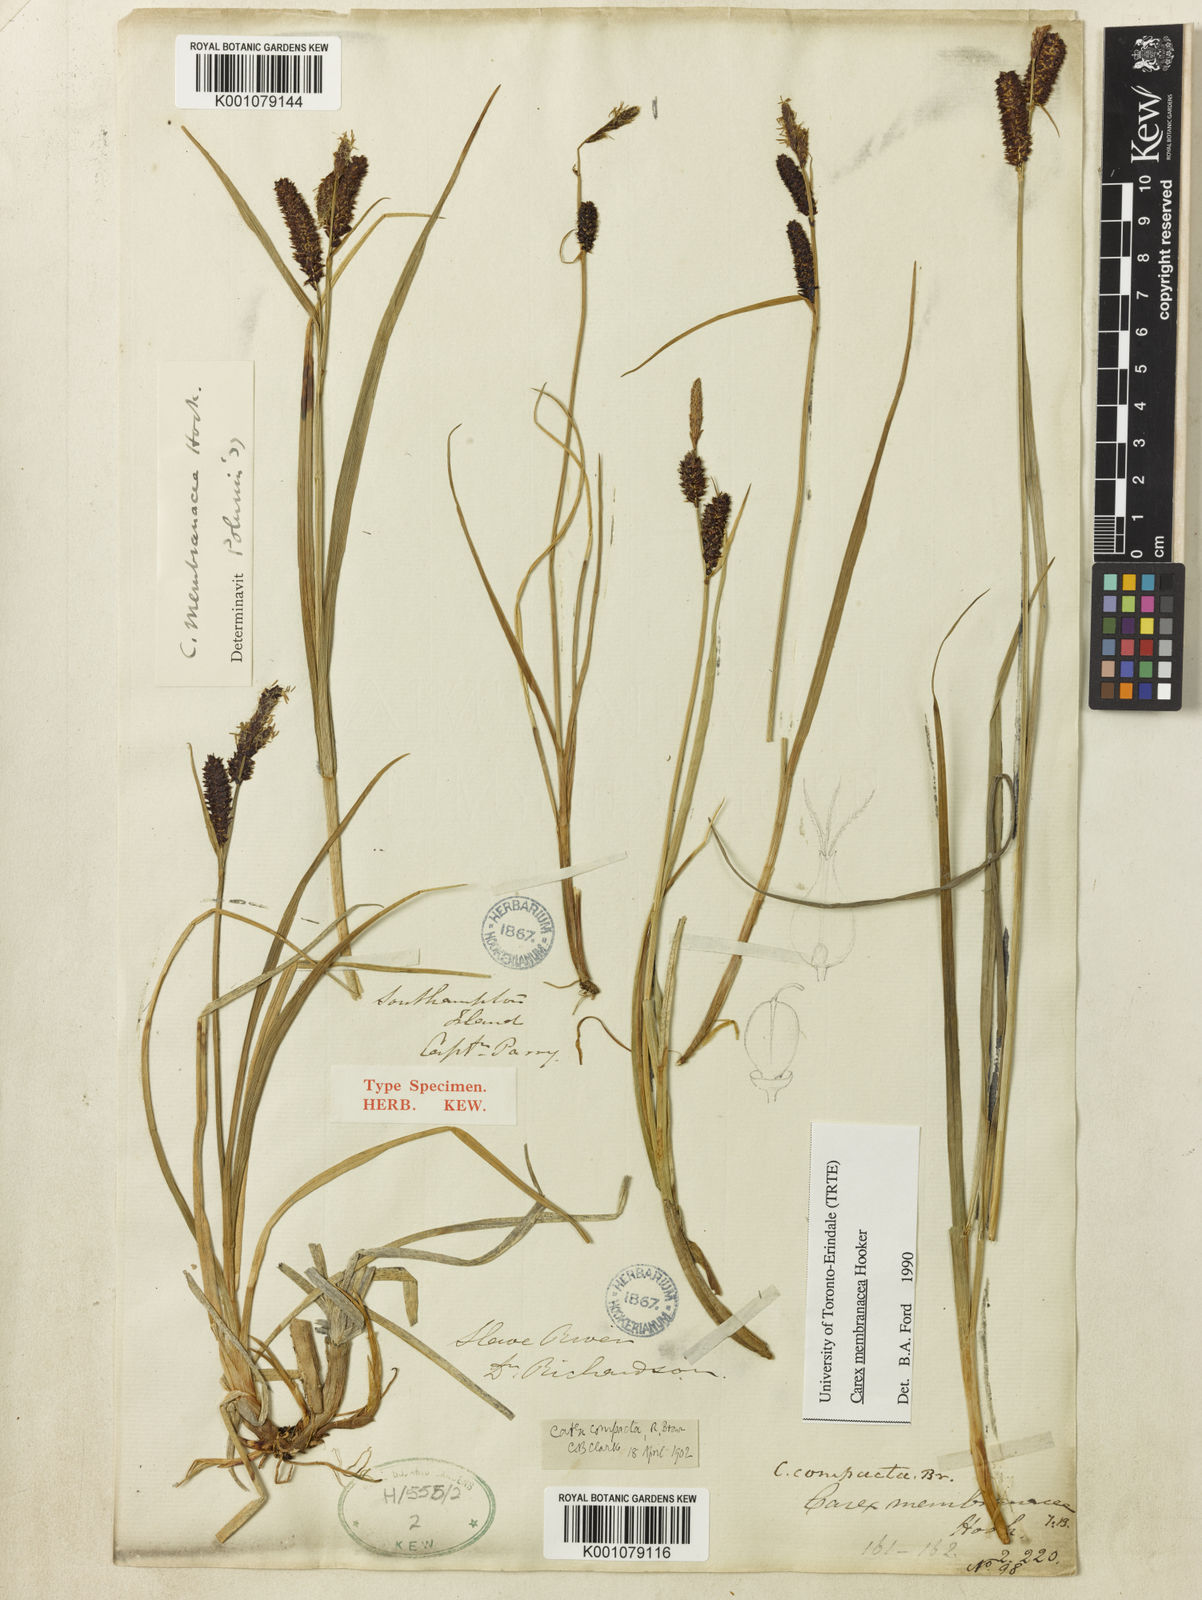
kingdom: Plantae
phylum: Tracheophyta
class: Liliopsida
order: Poales
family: Cyperaceae
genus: Carex
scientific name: Carex membranacea
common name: Fragile sedge
